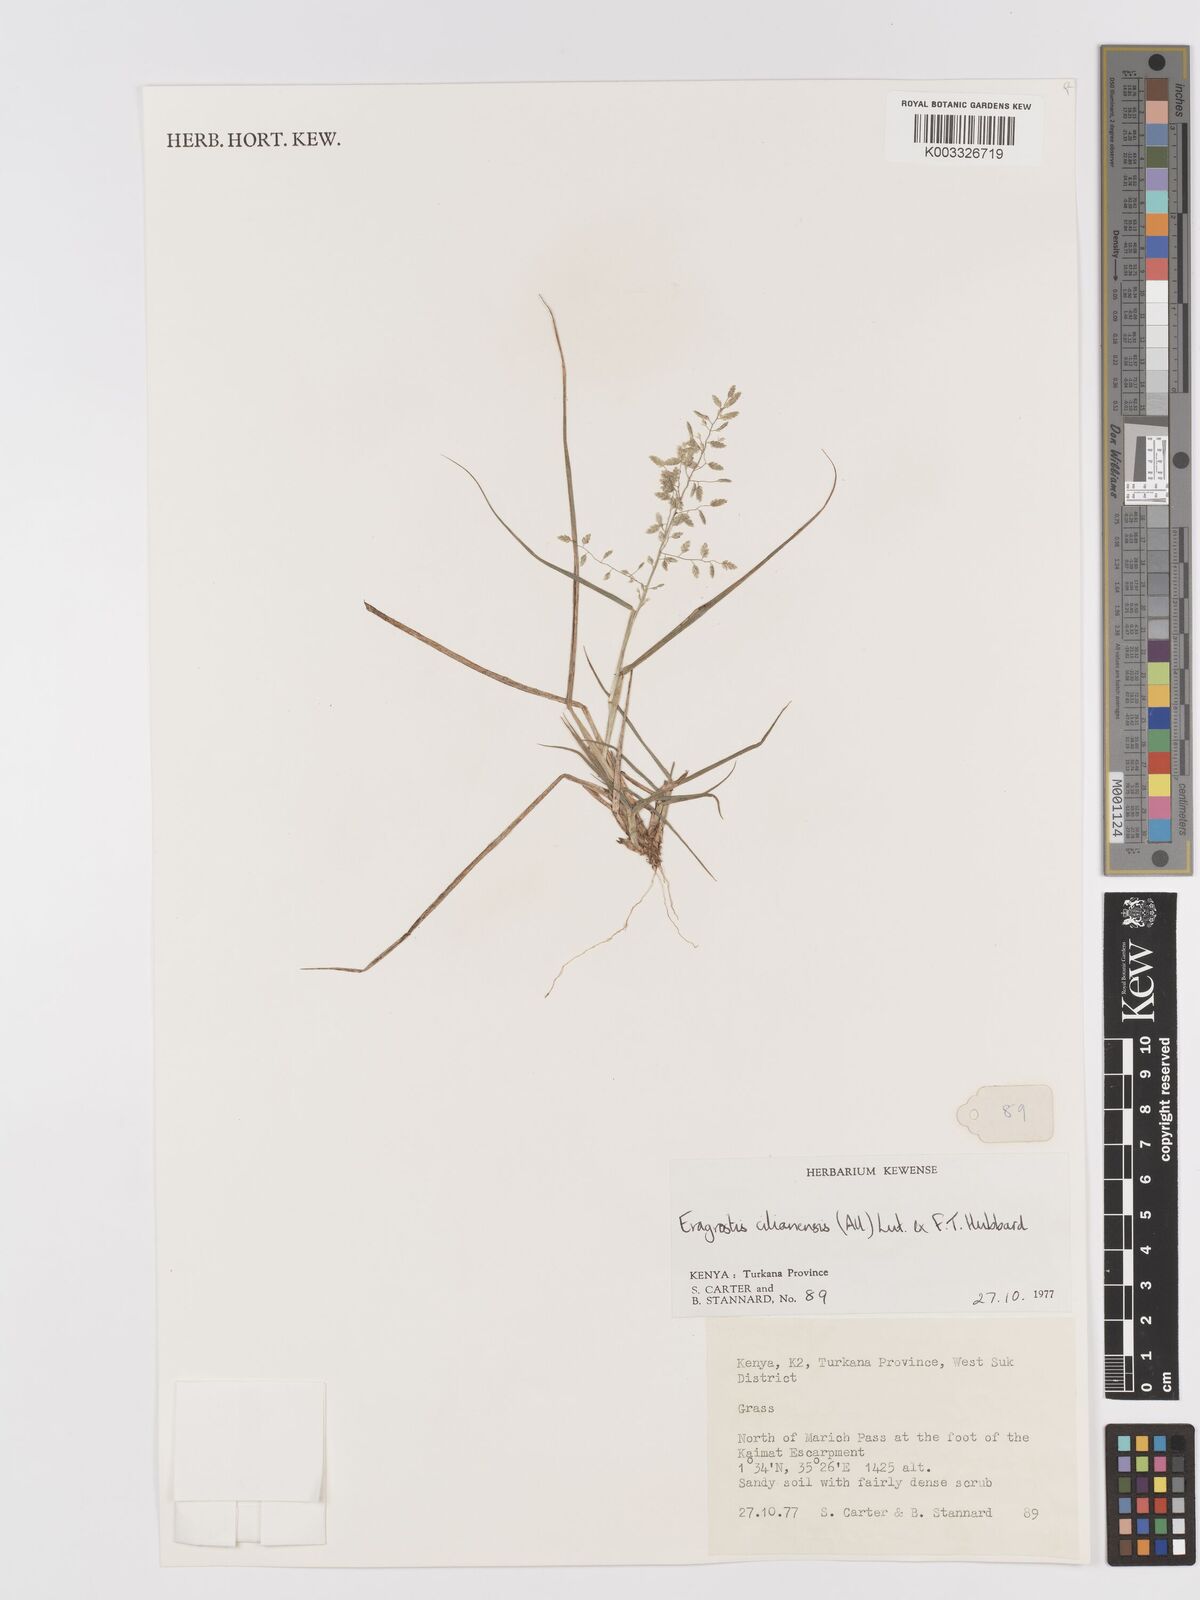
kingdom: Plantae
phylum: Tracheophyta
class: Liliopsida
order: Poales
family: Poaceae
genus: Eragrostis
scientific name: Eragrostis cilianensis
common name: Stinkgrass
